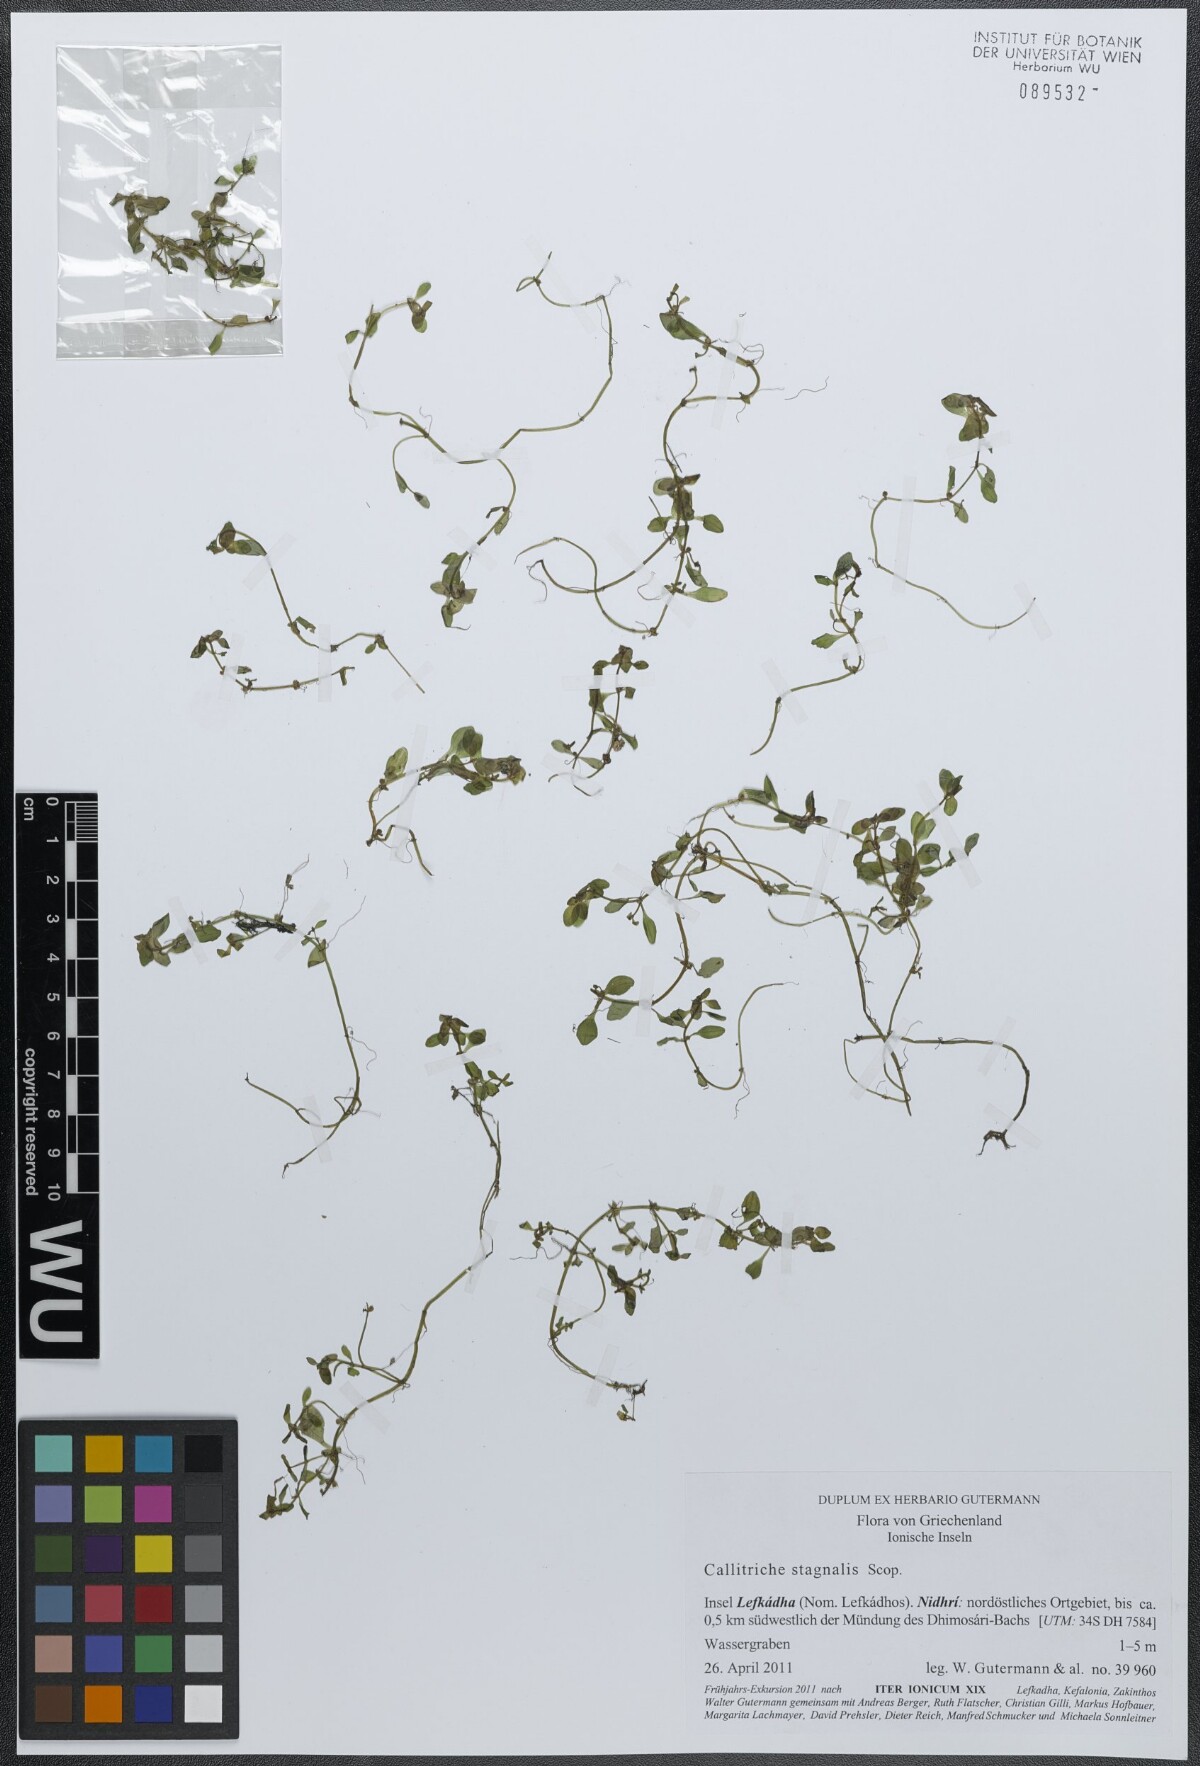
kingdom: Plantae
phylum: Tracheophyta
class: Magnoliopsida
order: Lamiales
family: Plantaginaceae
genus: Callitriche
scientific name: Callitriche stagnalis
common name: Common water-starwort
